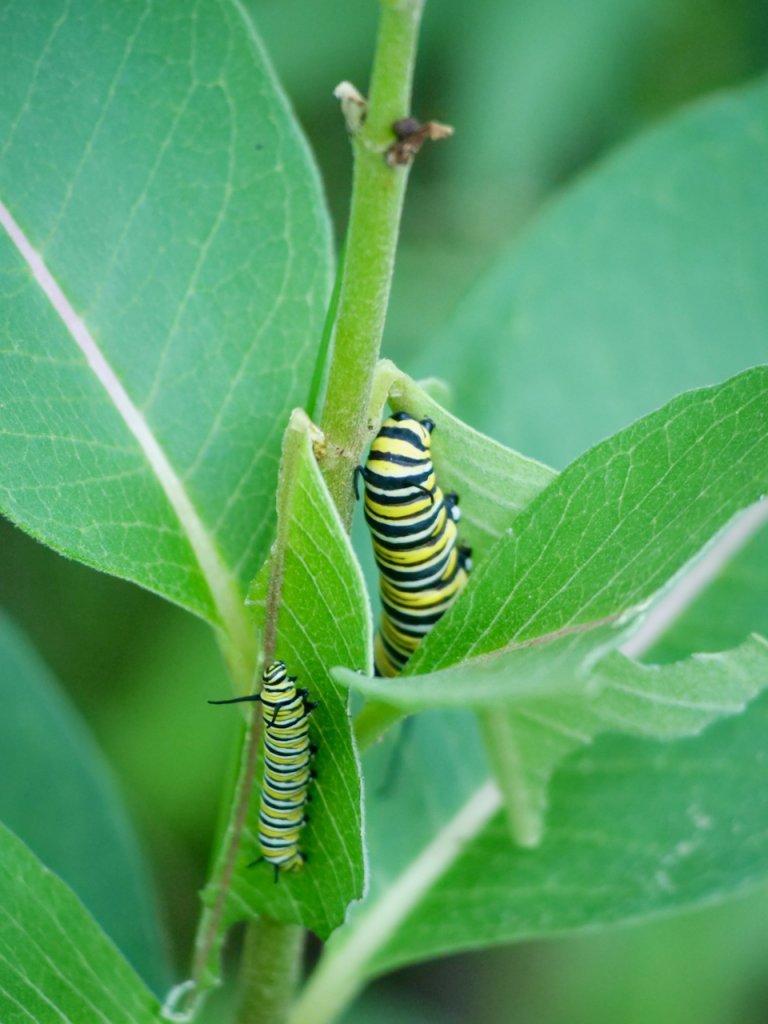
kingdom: Animalia
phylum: Arthropoda
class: Insecta
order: Lepidoptera
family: Nymphalidae
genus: Danaus
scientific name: Danaus plexippus
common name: Monarch
